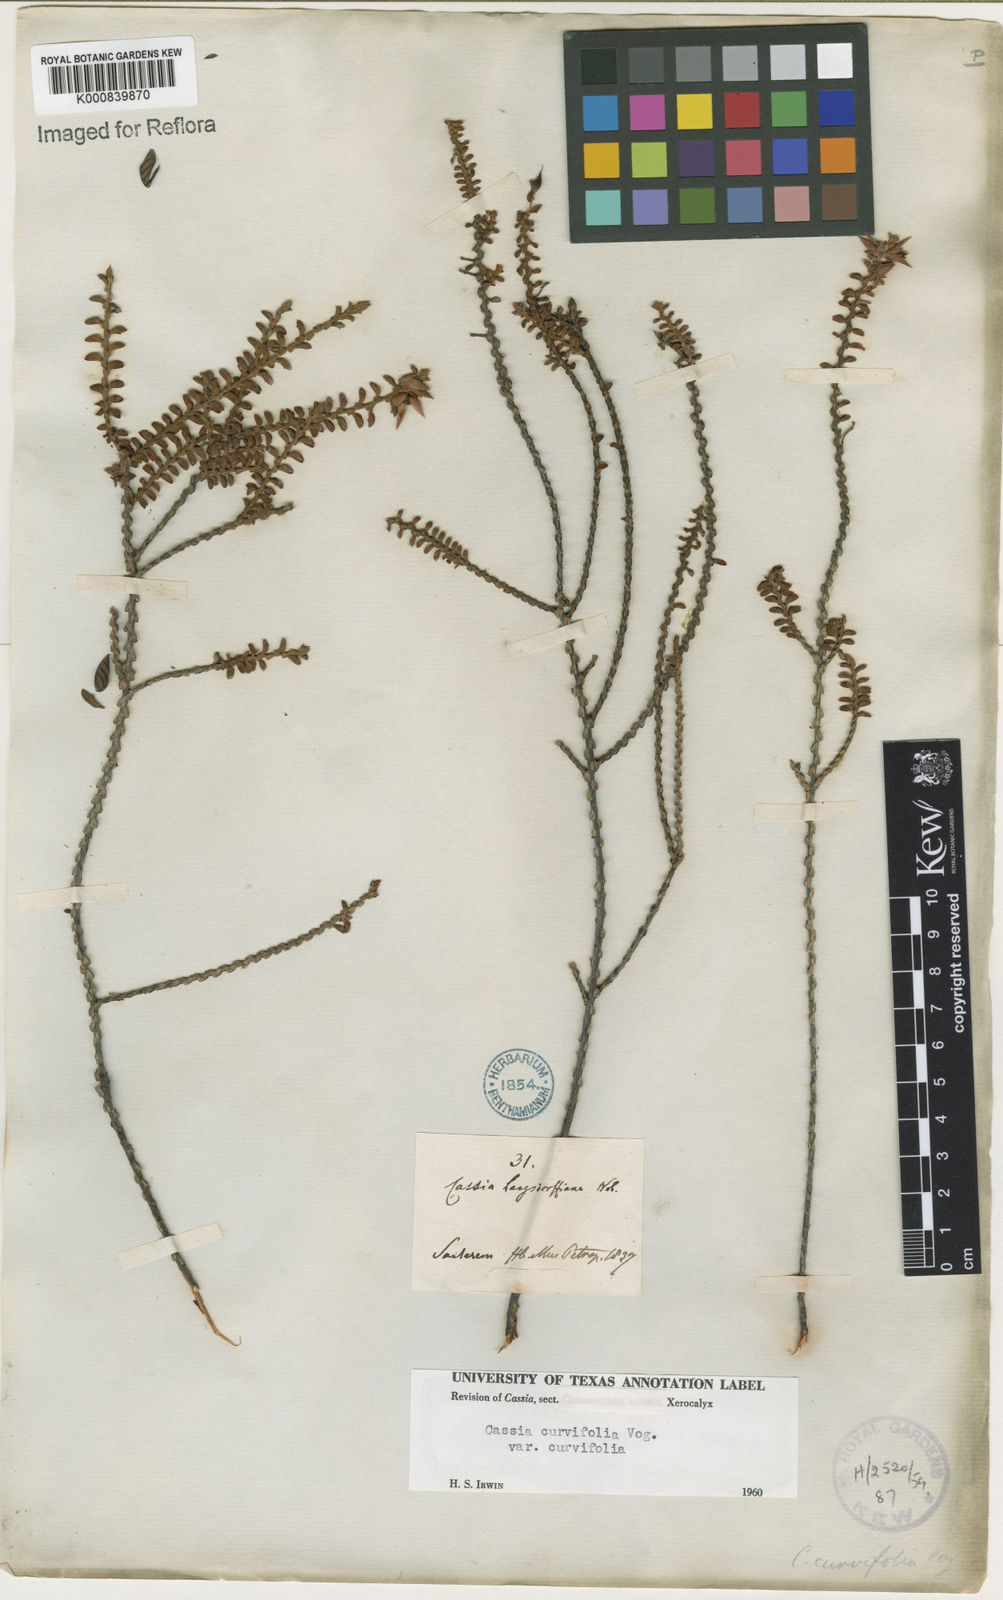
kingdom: Plantae
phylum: Tracheophyta
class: Magnoliopsida
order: Fabales
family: Fabaceae
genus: Chamaecrista
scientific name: Chamaecrista ramosa
